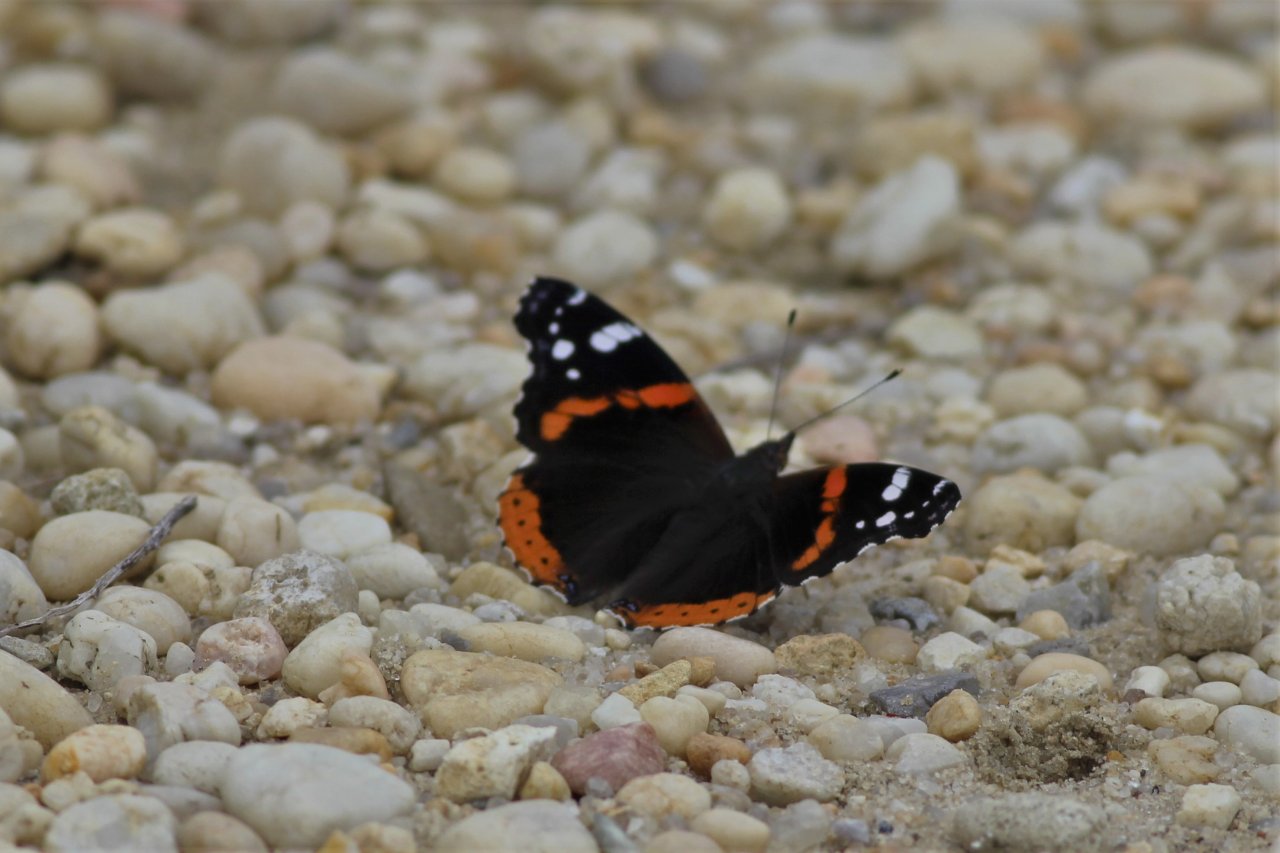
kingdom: Animalia
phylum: Arthropoda
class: Insecta
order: Lepidoptera
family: Nymphalidae
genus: Vanessa
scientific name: Vanessa atalanta
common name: Red Admiral
